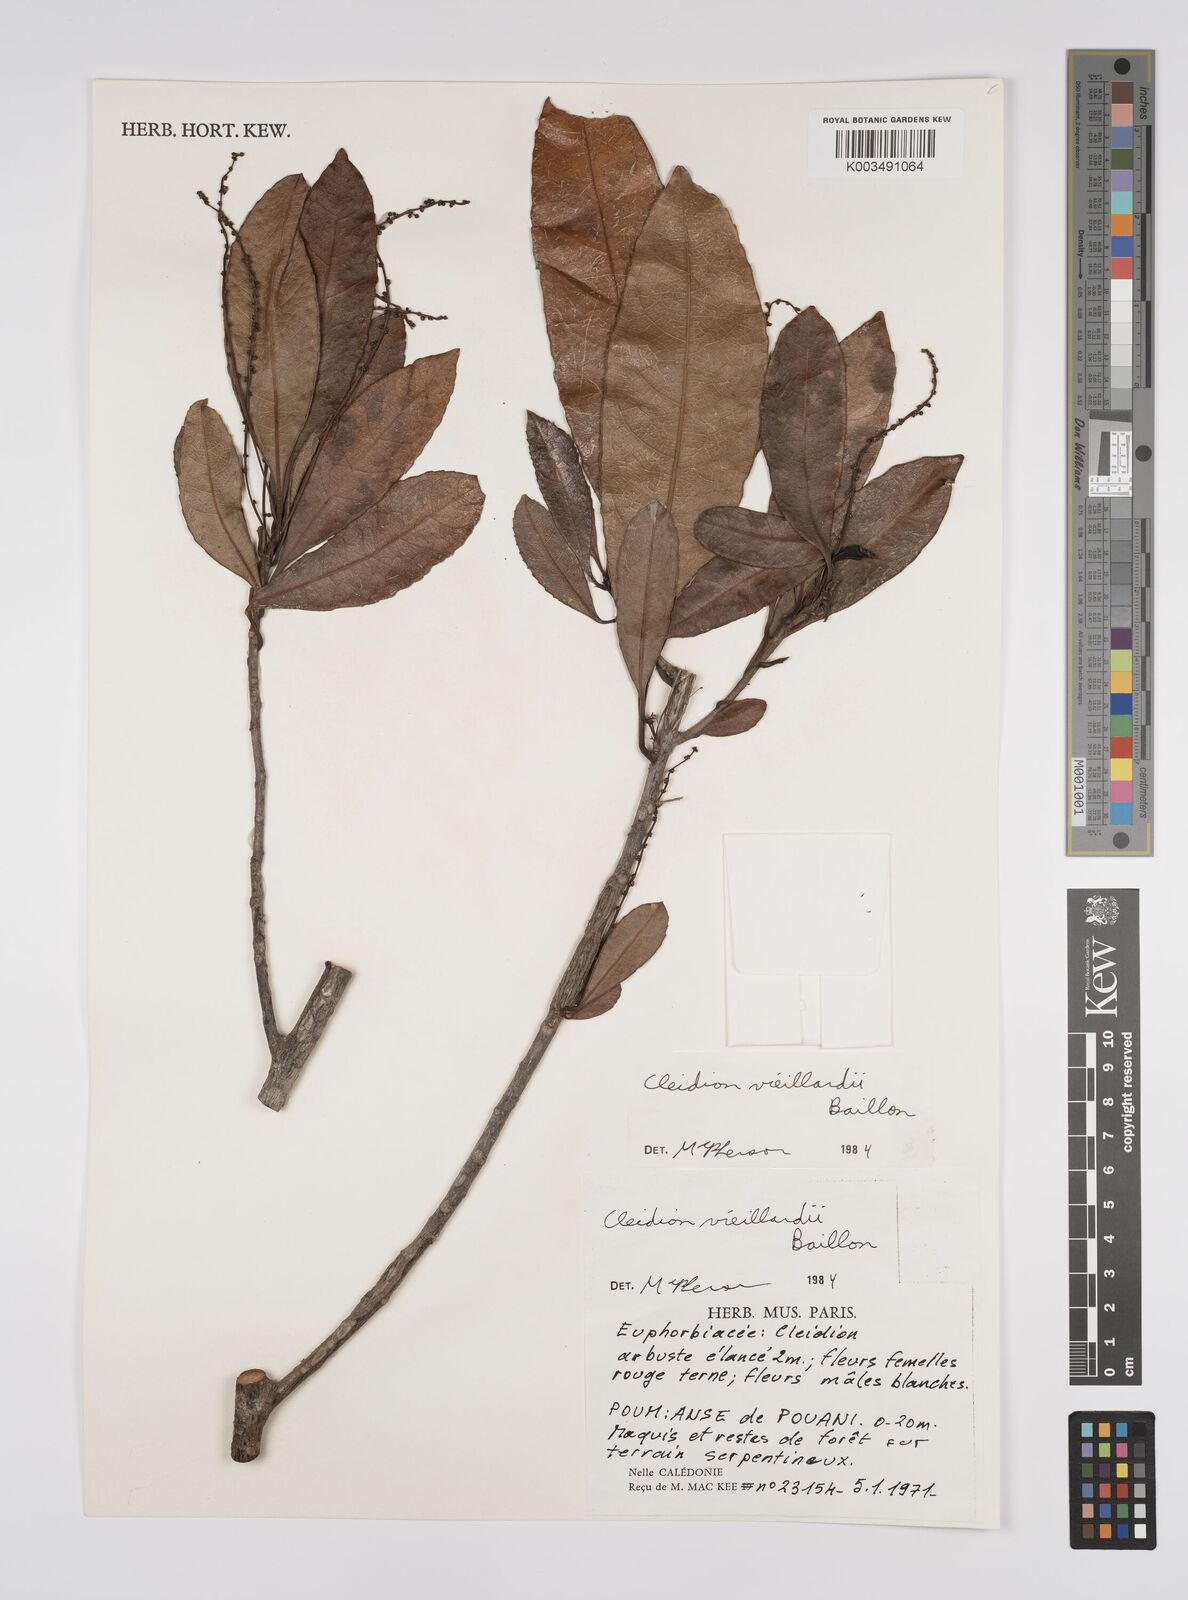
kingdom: Plantae
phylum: Tracheophyta
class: Magnoliopsida
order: Malpighiales
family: Euphorbiaceae
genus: Cleidion
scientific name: Cleidion vieillardii
